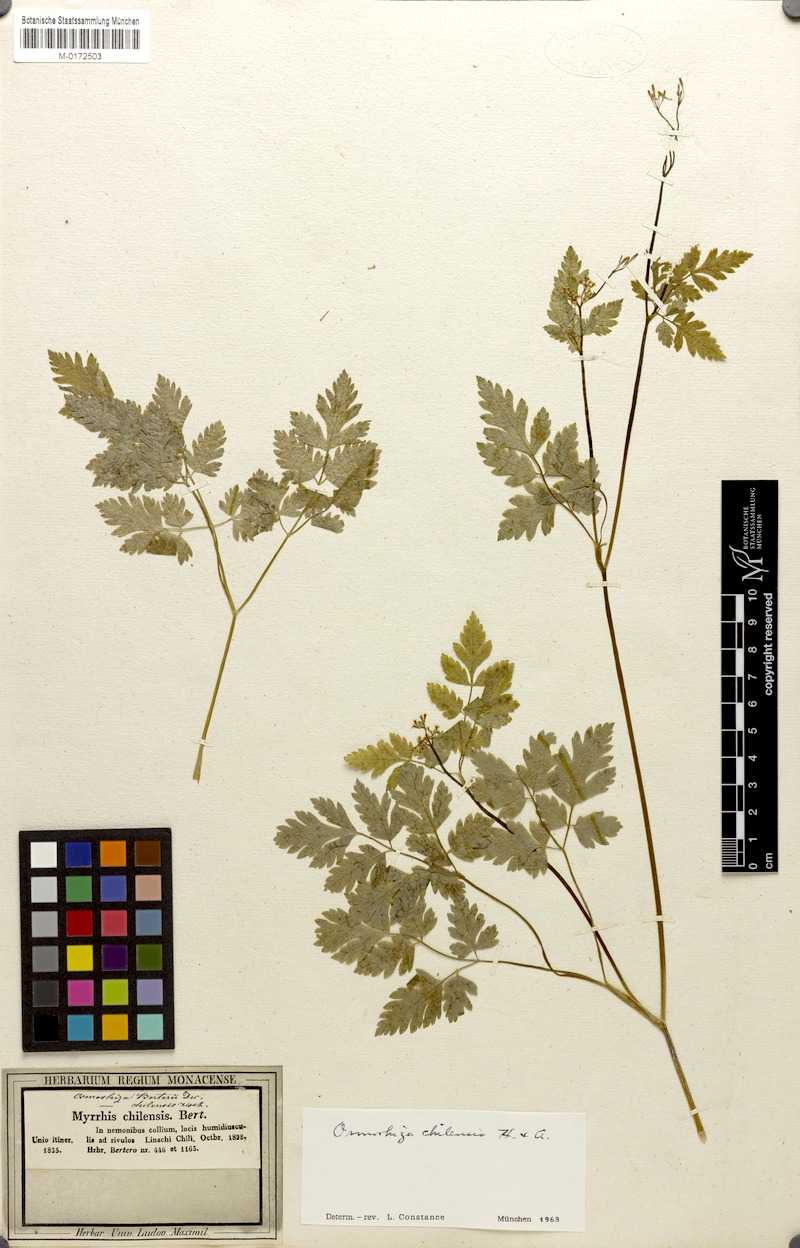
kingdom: Plantae
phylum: Tracheophyta
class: Magnoliopsida
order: Apiales
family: Apiaceae
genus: Osmorhiza
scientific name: Osmorhiza berteroi
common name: Mountain sweet cicely
